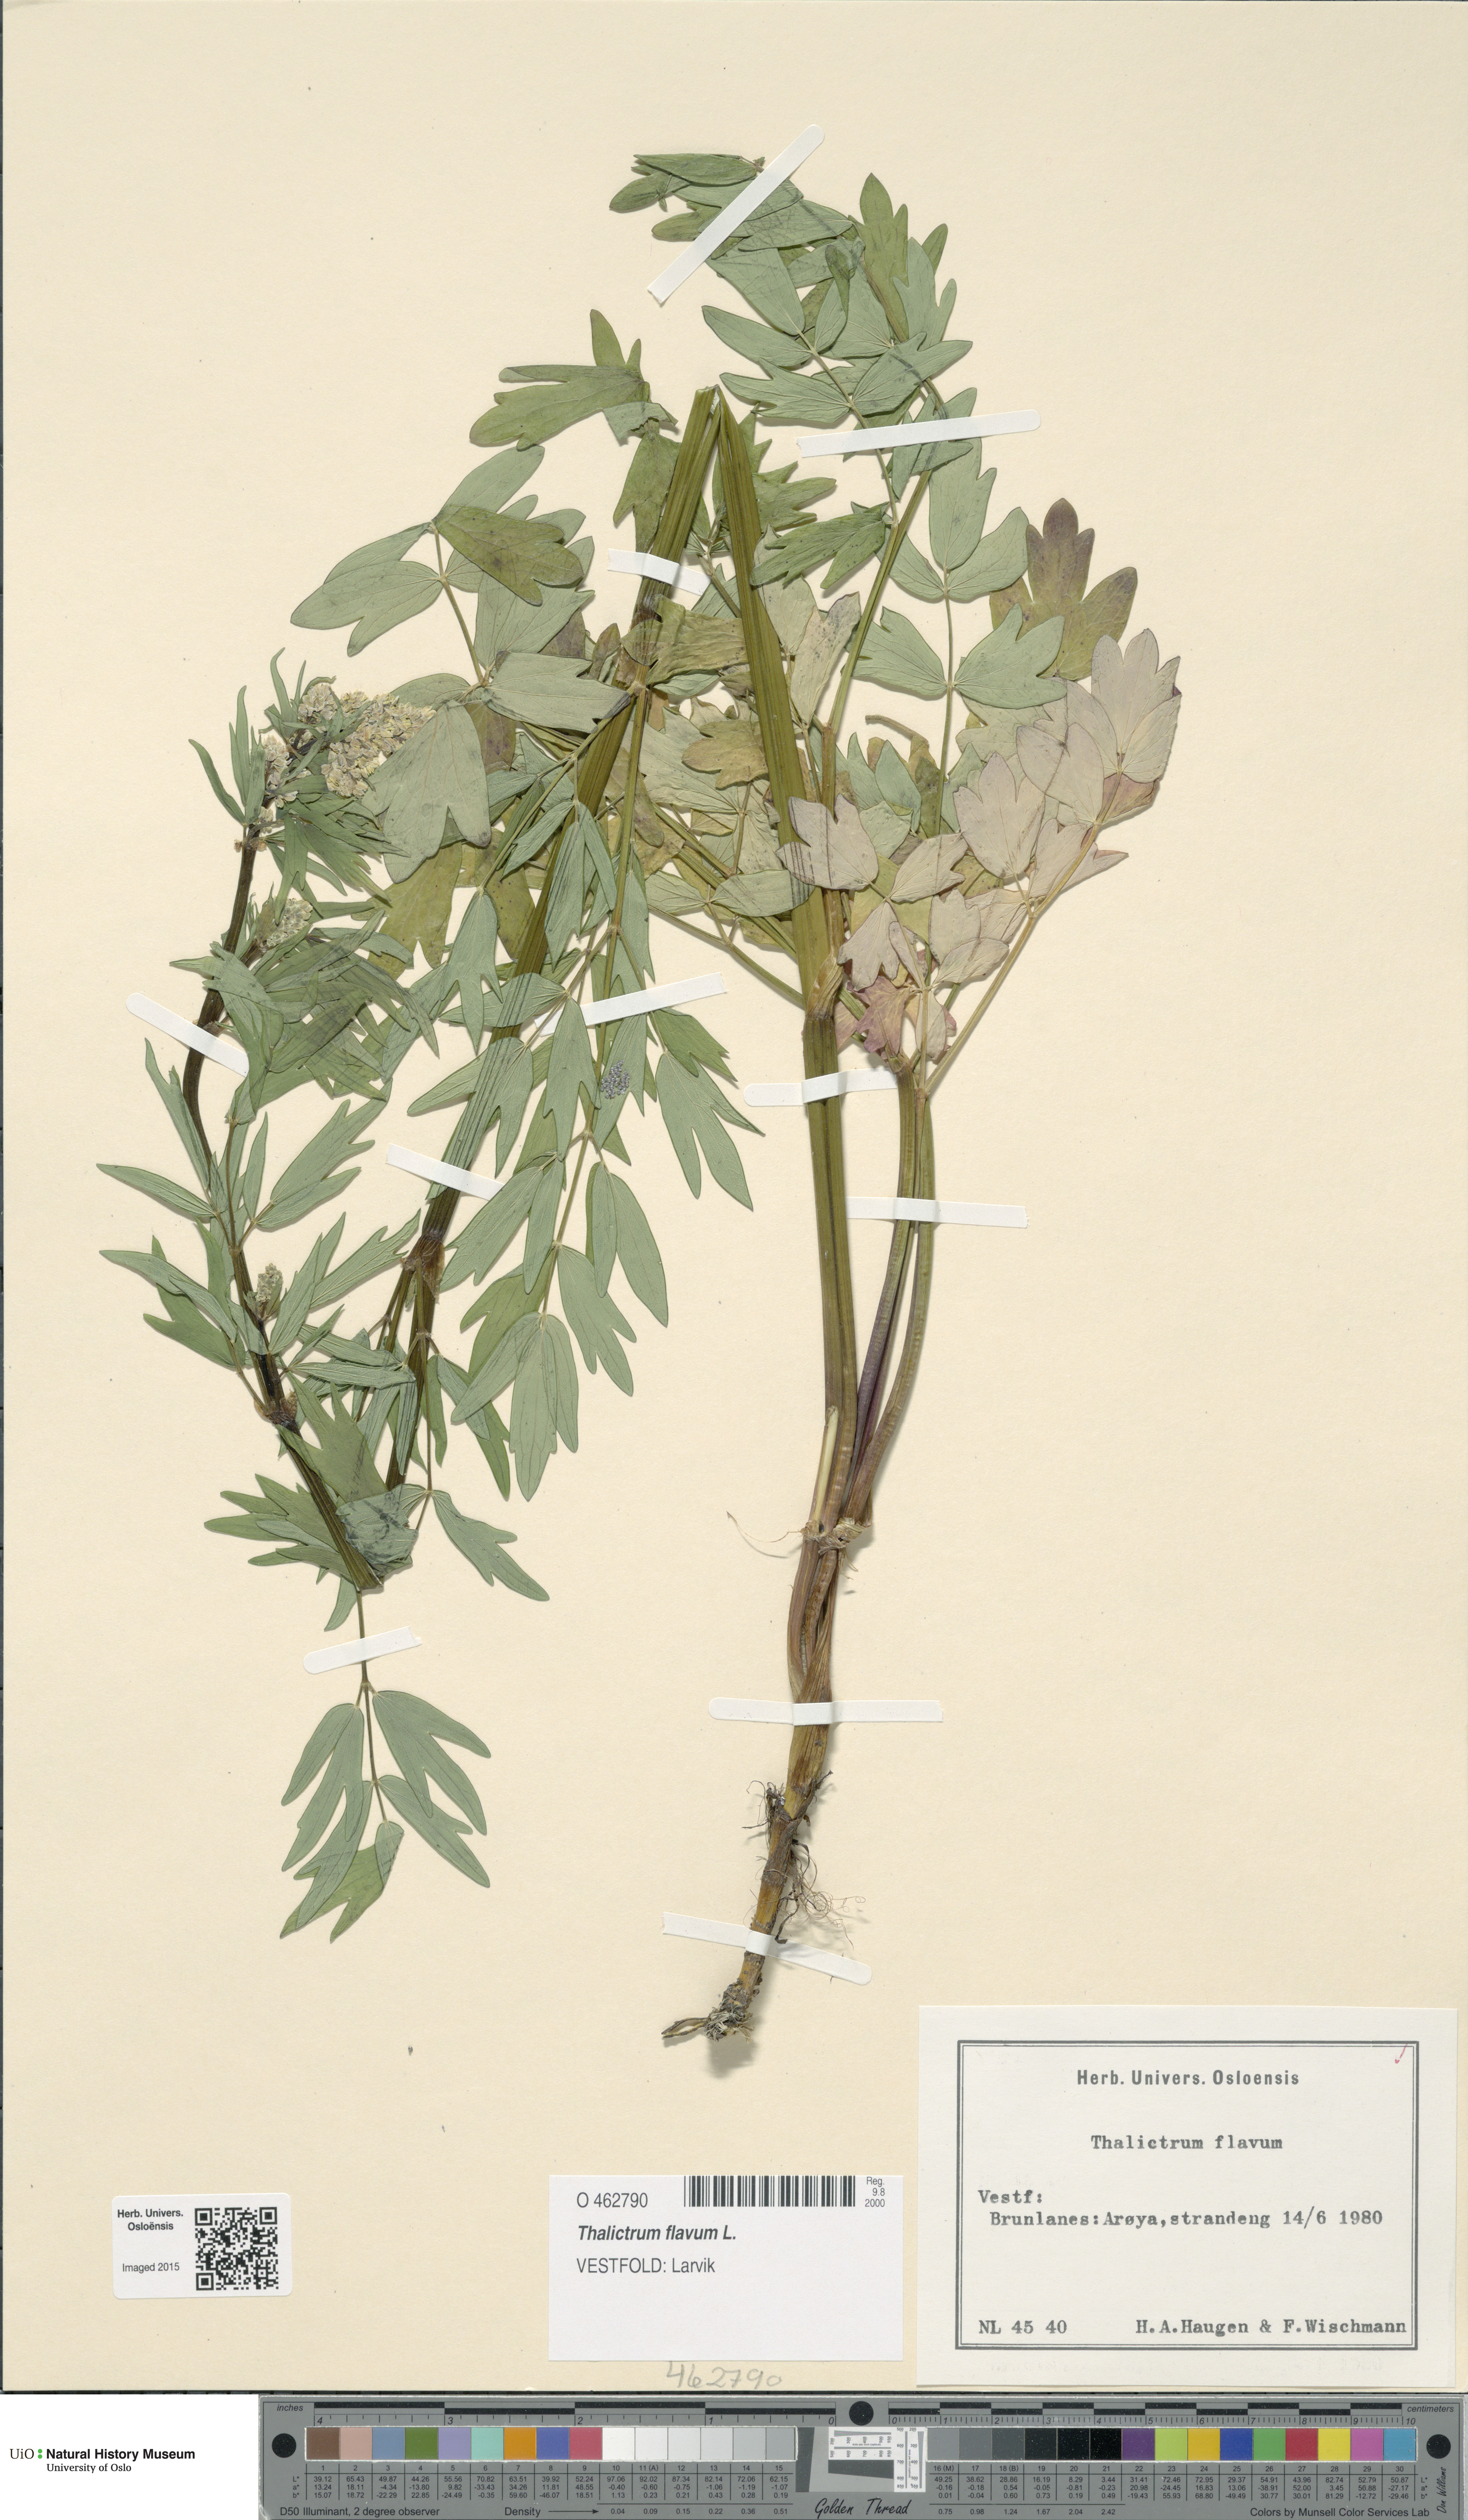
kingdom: Plantae
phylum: Tracheophyta
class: Magnoliopsida
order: Ranunculales
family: Ranunculaceae
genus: Thalictrum
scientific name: Thalictrum flavum
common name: Common meadow-rue
